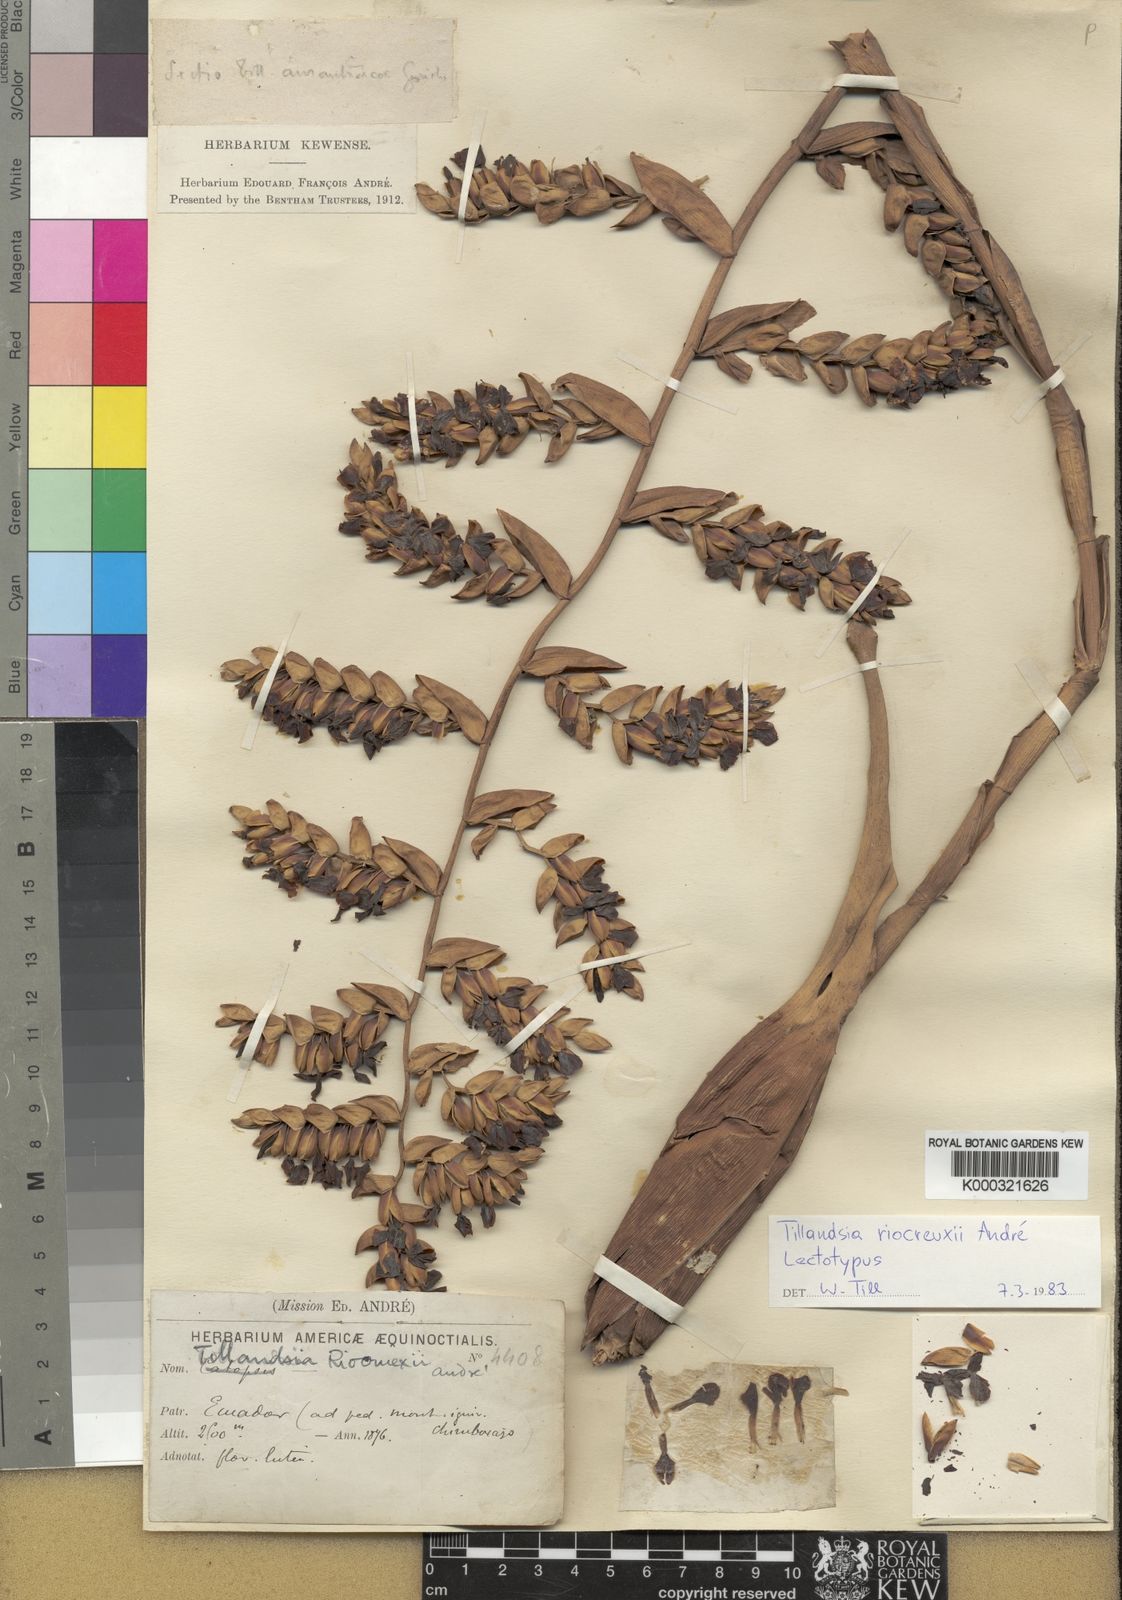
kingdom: Plantae
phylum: Tracheophyta
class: Liliopsida
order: Poales
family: Bromeliaceae
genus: Tillandsia
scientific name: Tillandsia
